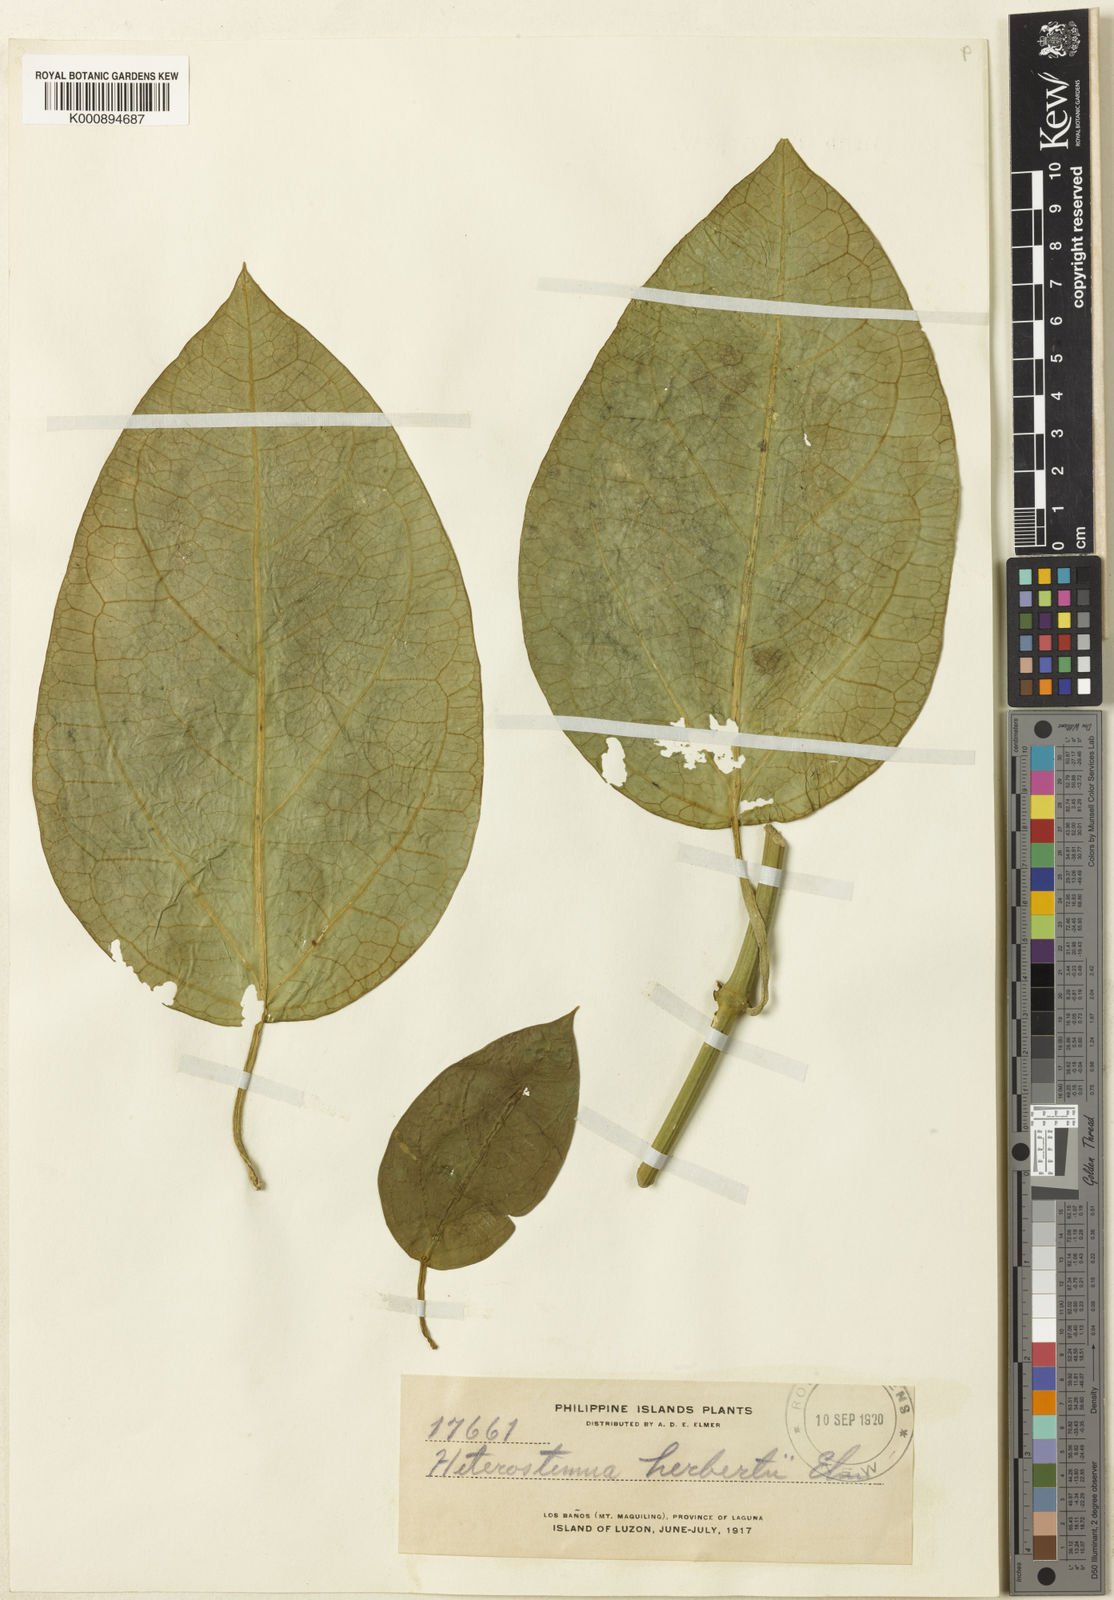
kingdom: Plantae
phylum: Tracheophyta
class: Magnoliopsida
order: Gentianales
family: Apocynaceae
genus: Heterostemma
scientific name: Heterostemma herbertii
